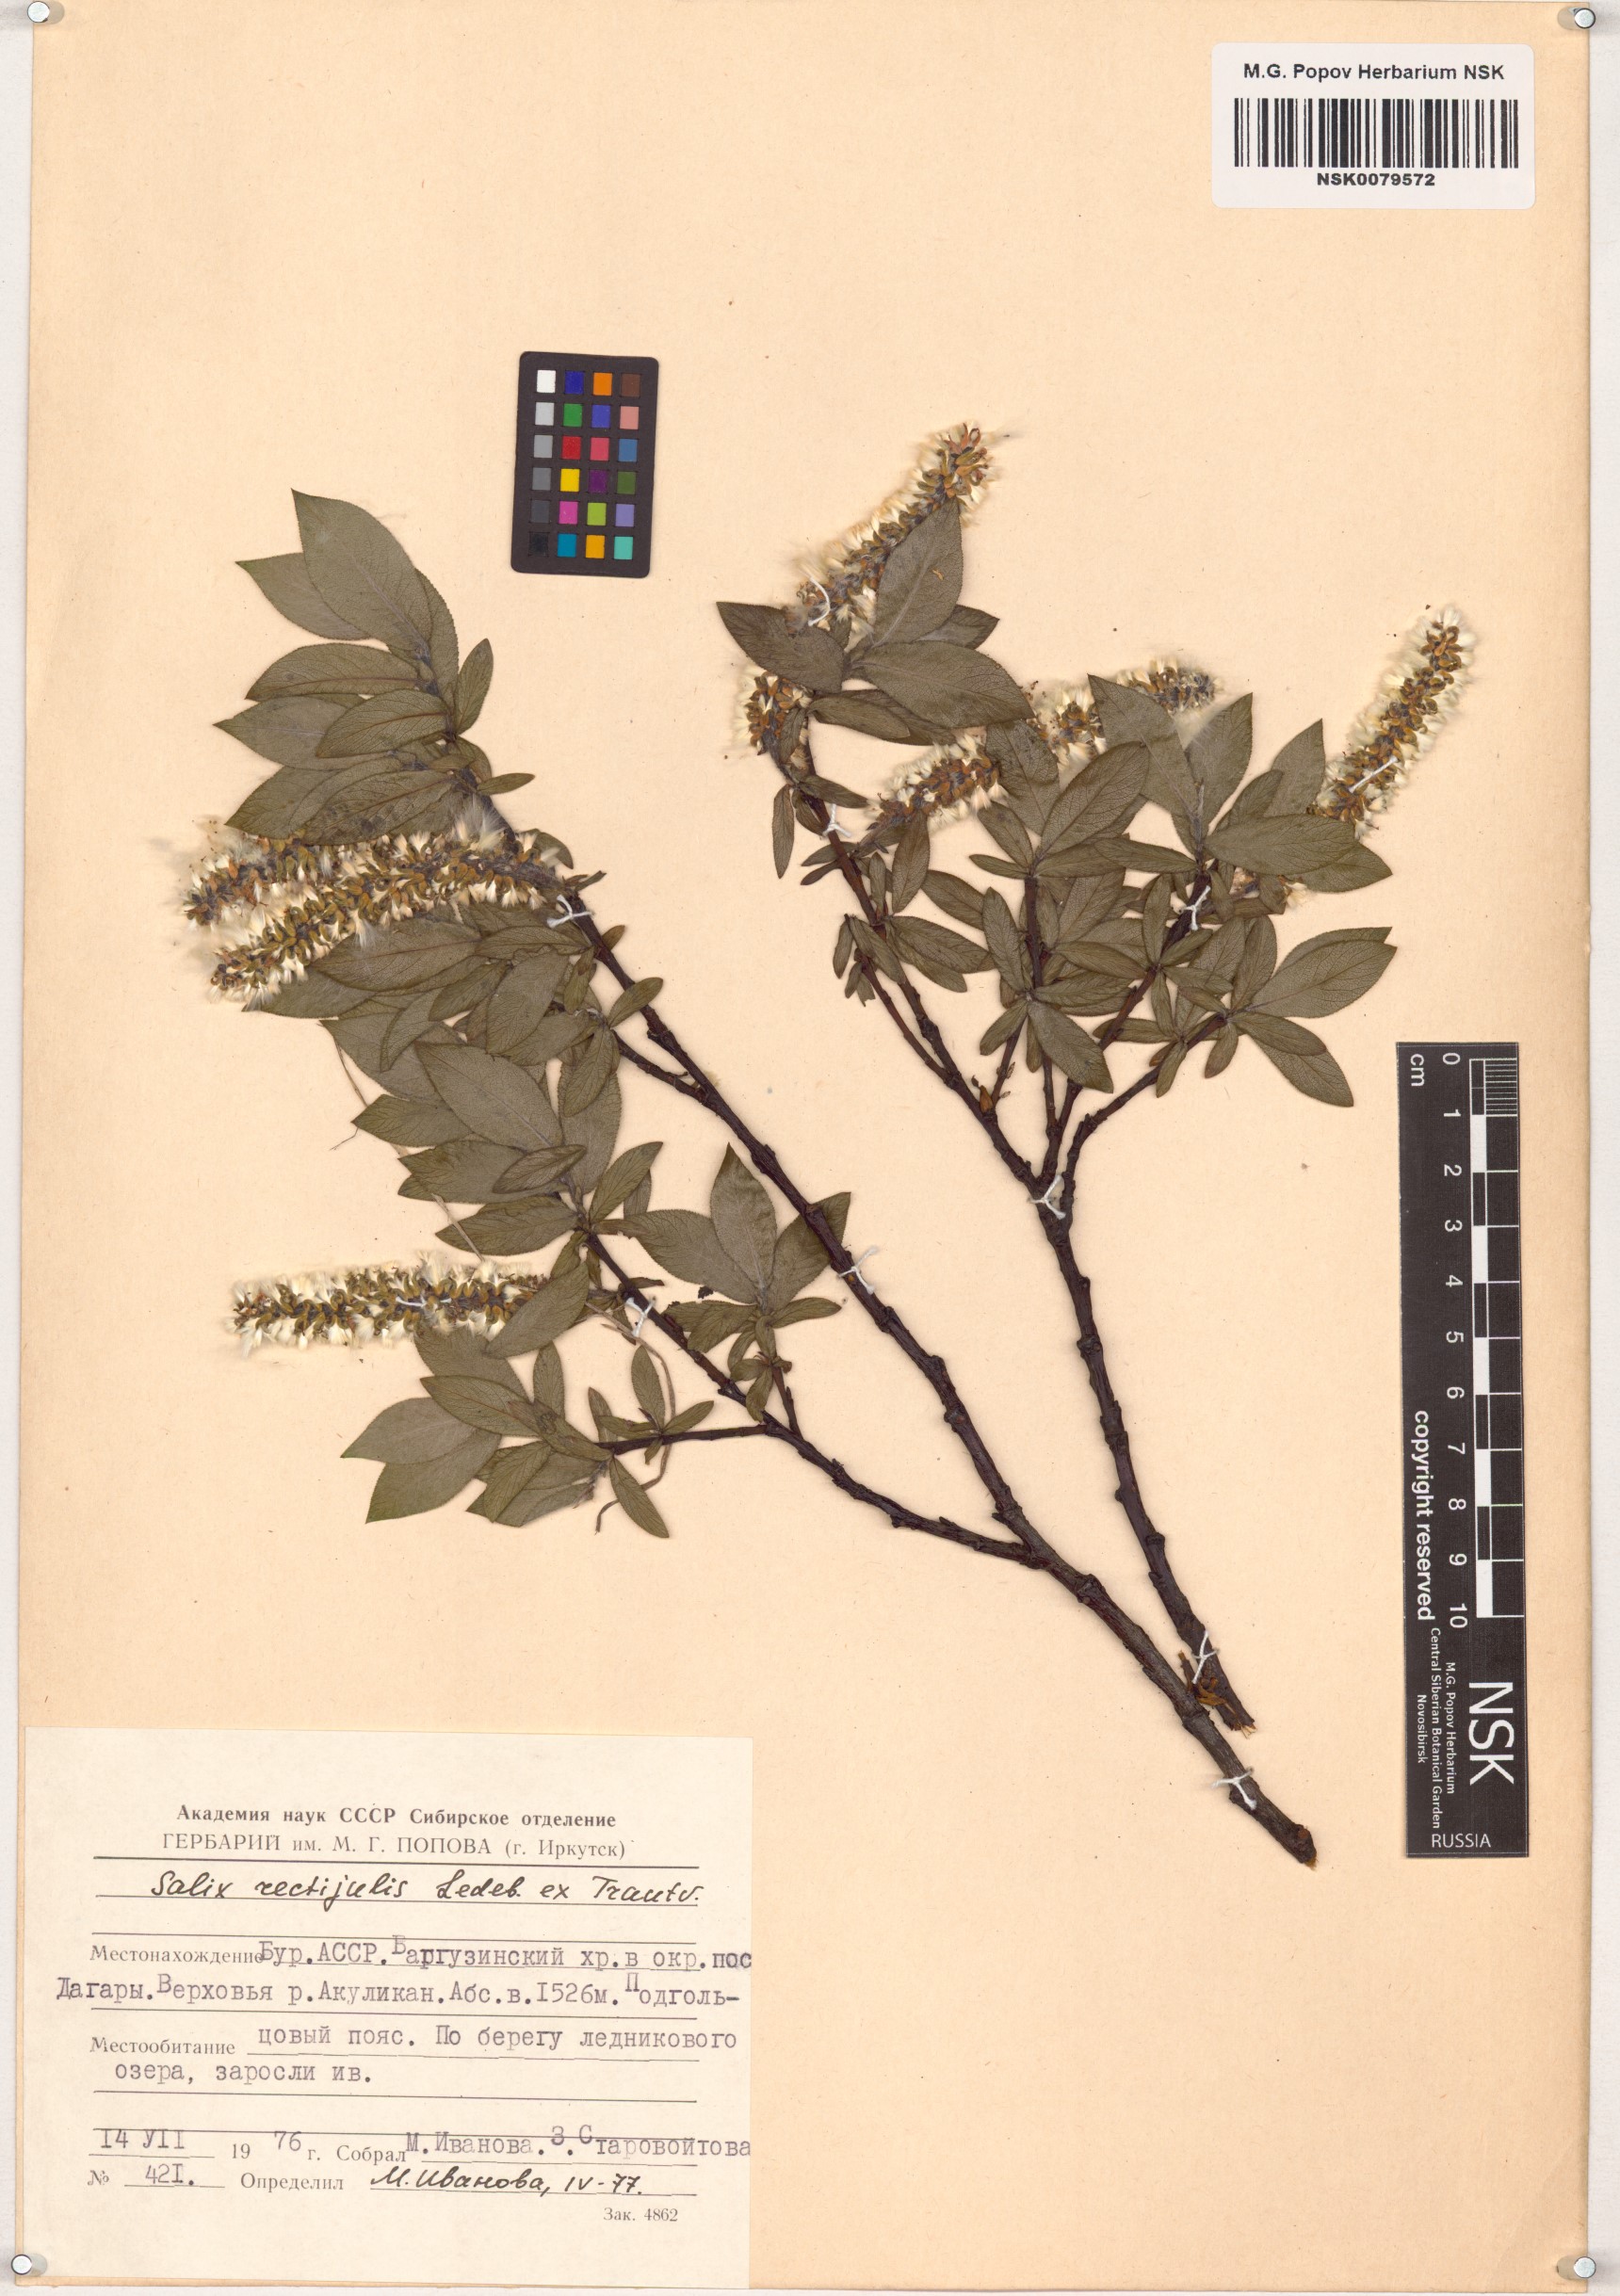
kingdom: Plantae
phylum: Tracheophyta
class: Magnoliopsida
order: Malpighiales
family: Salicaceae
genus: Salix
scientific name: Salix rectijulis
